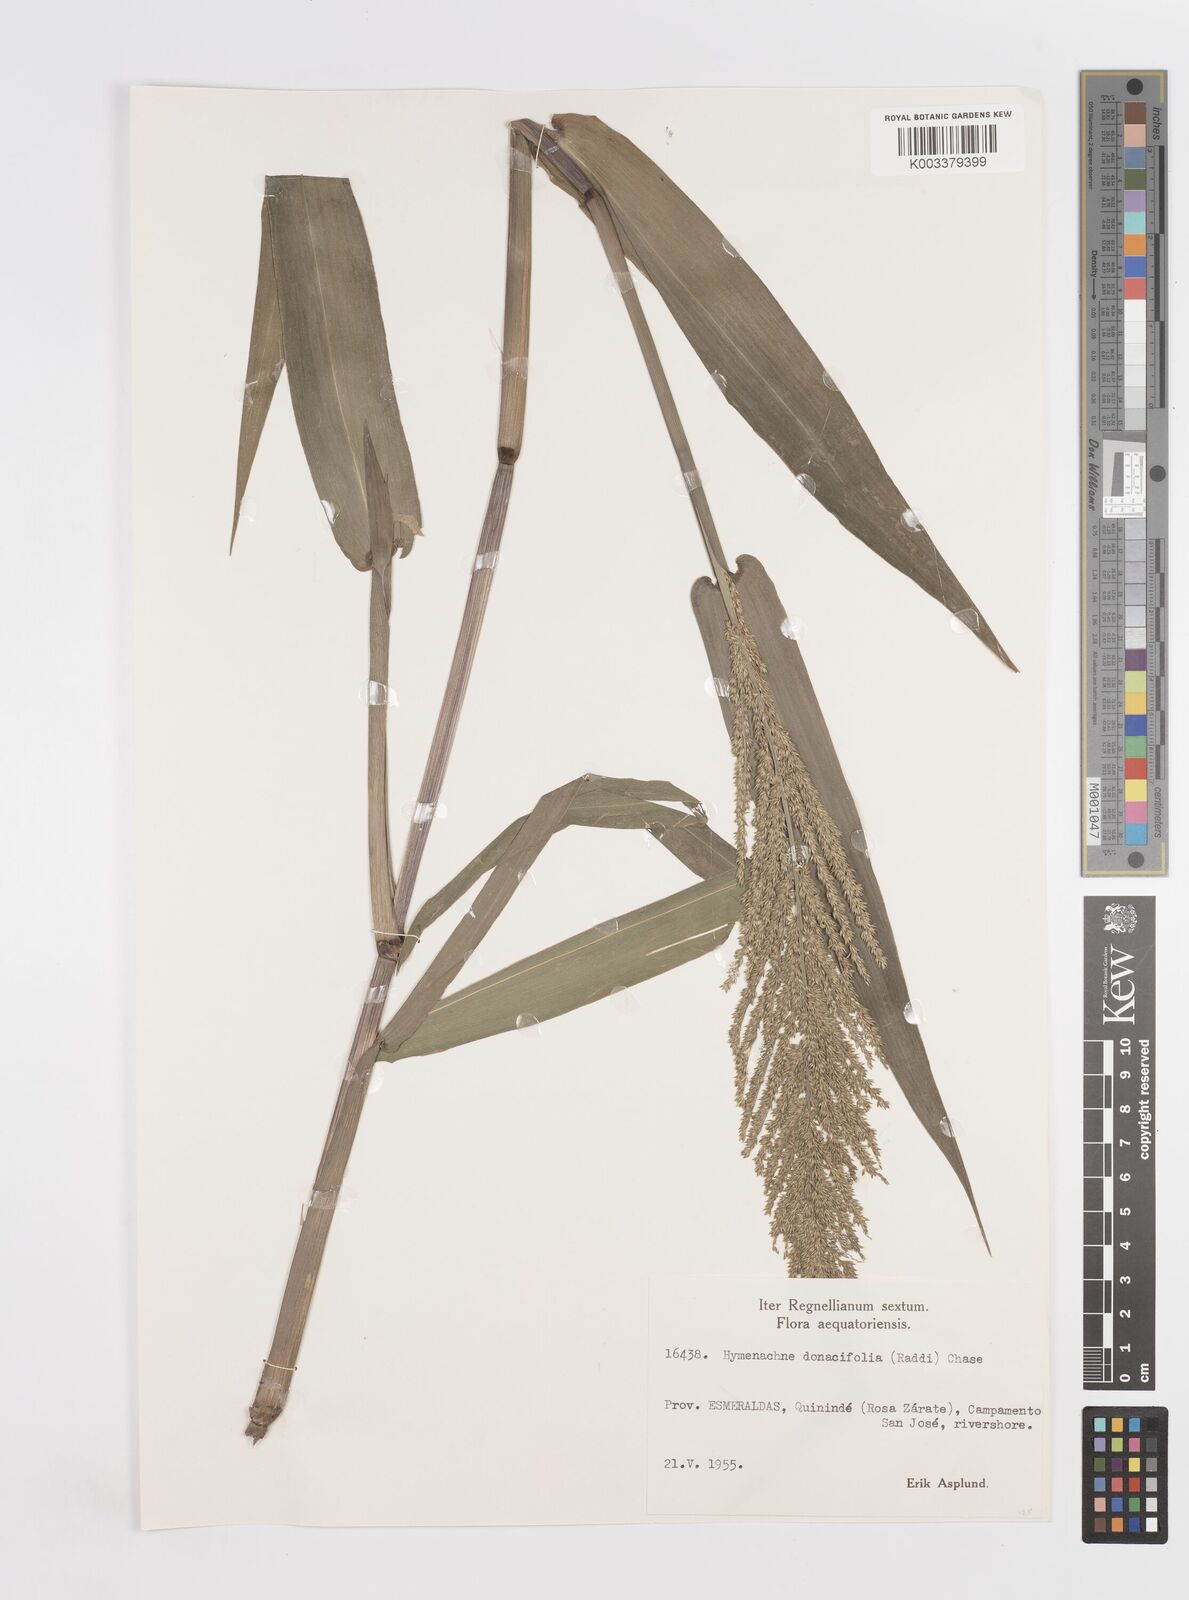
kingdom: Plantae
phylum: Tracheophyta
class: Liliopsida
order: Poales
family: Poaceae
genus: Hymenachne
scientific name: Hymenachne donacifolia
